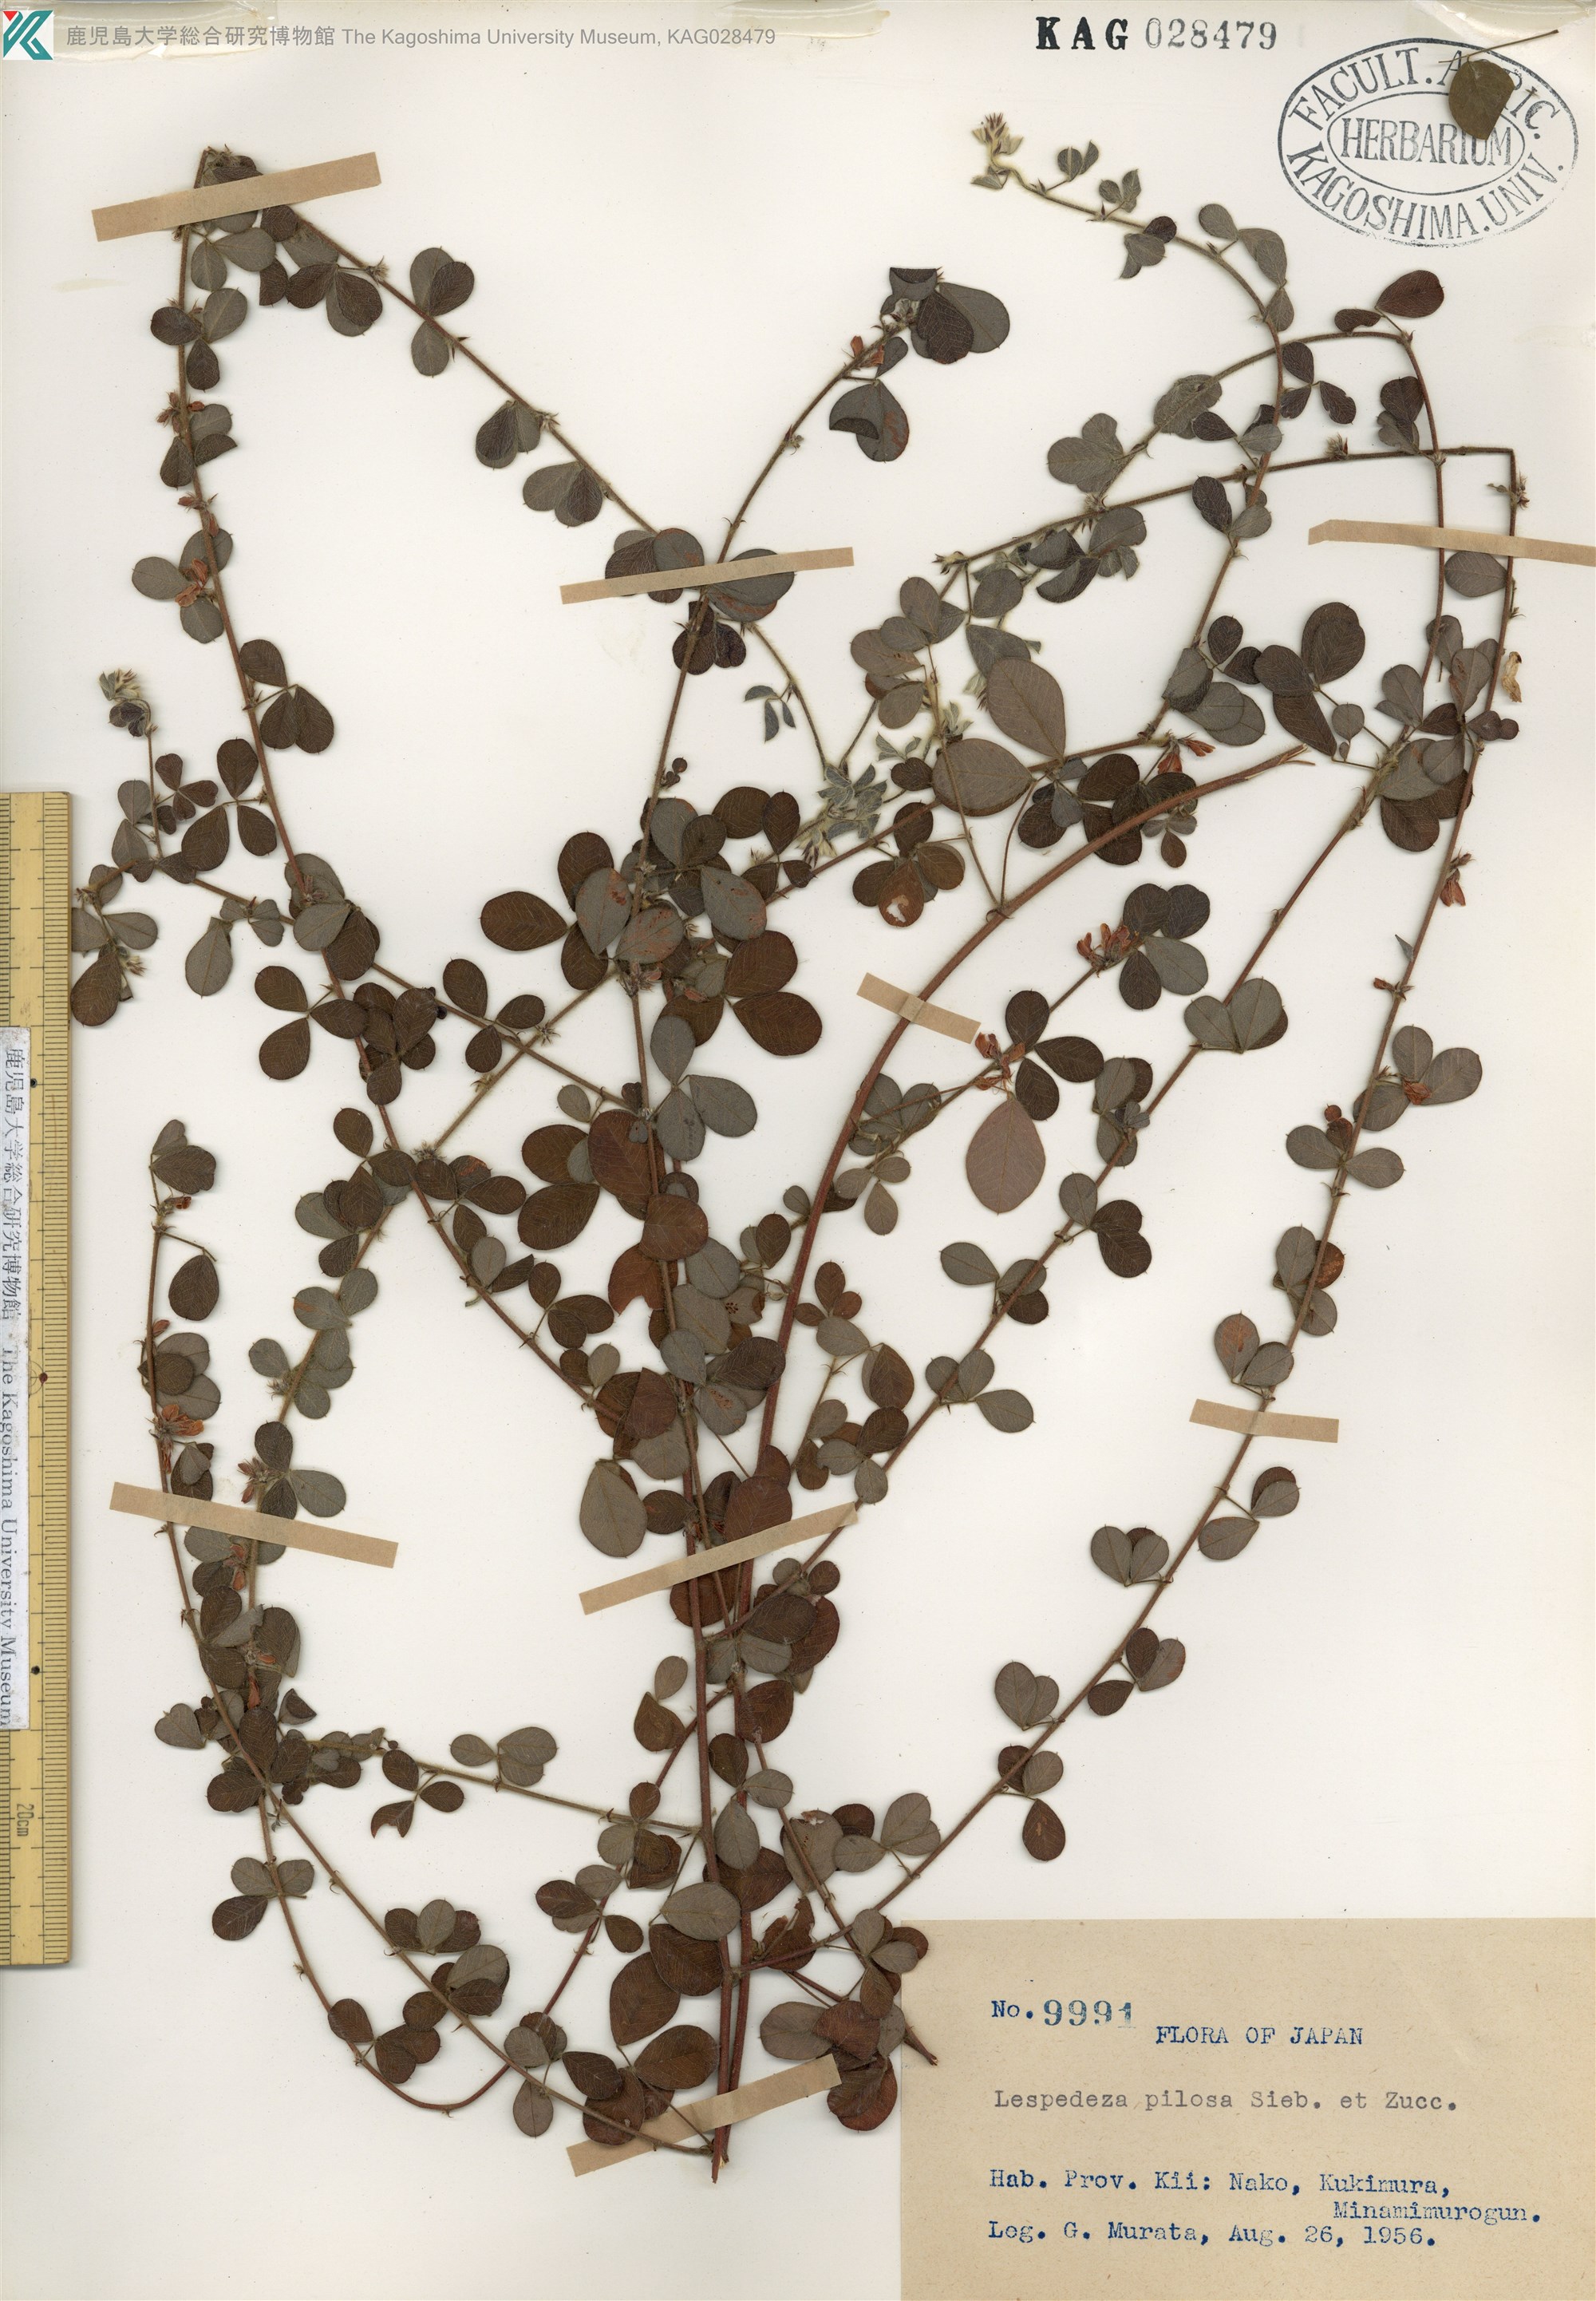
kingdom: Plantae
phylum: Tracheophyta
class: Magnoliopsida
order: Fabales
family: Fabaceae
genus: Lespedeza
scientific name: Lespedeza pilosa
